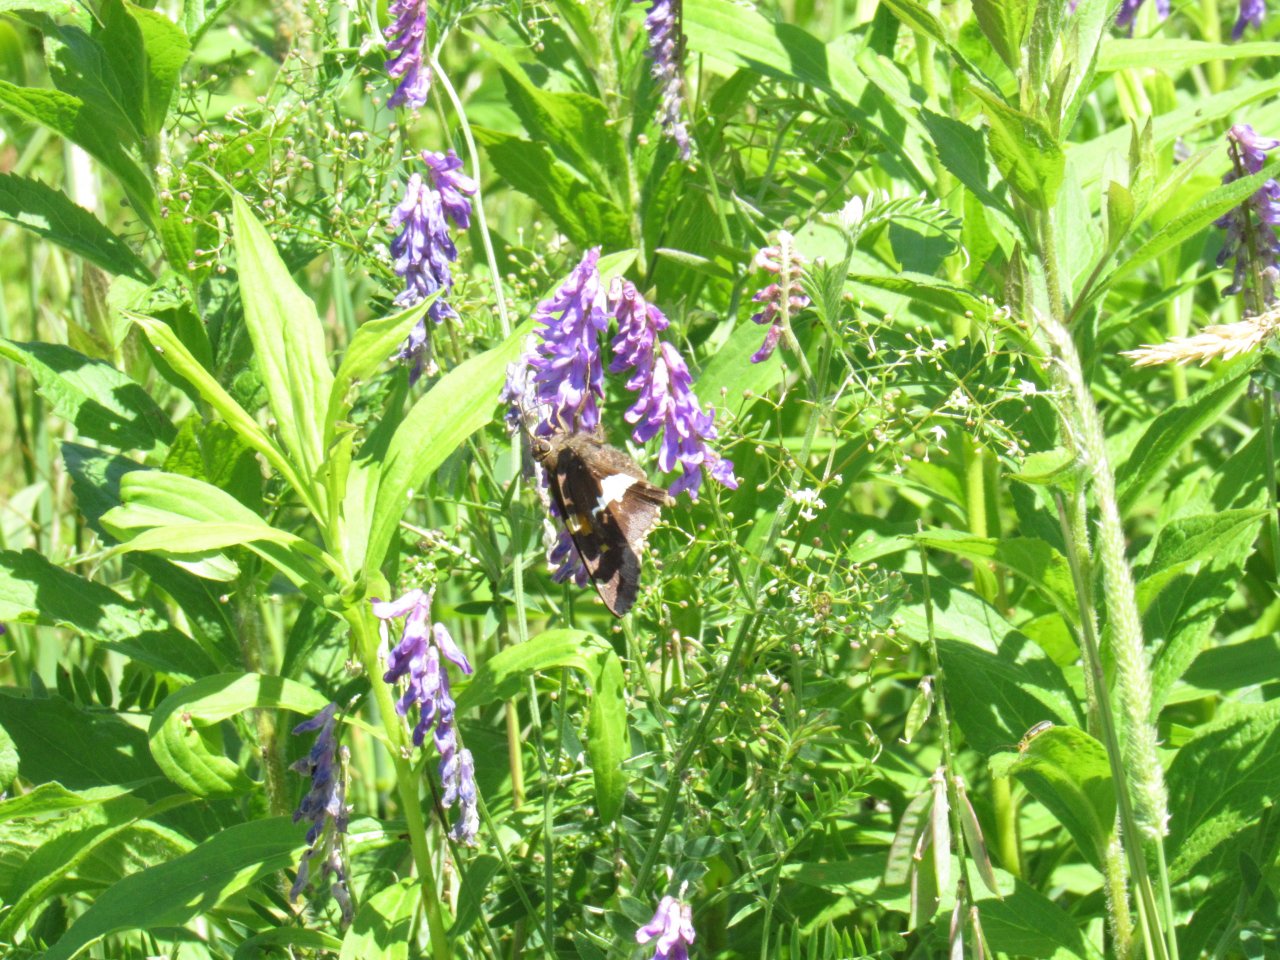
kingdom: Animalia
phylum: Arthropoda
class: Insecta
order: Lepidoptera
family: Hesperiidae
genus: Epargyreus
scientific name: Epargyreus clarus
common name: Silver-spotted Skipper
